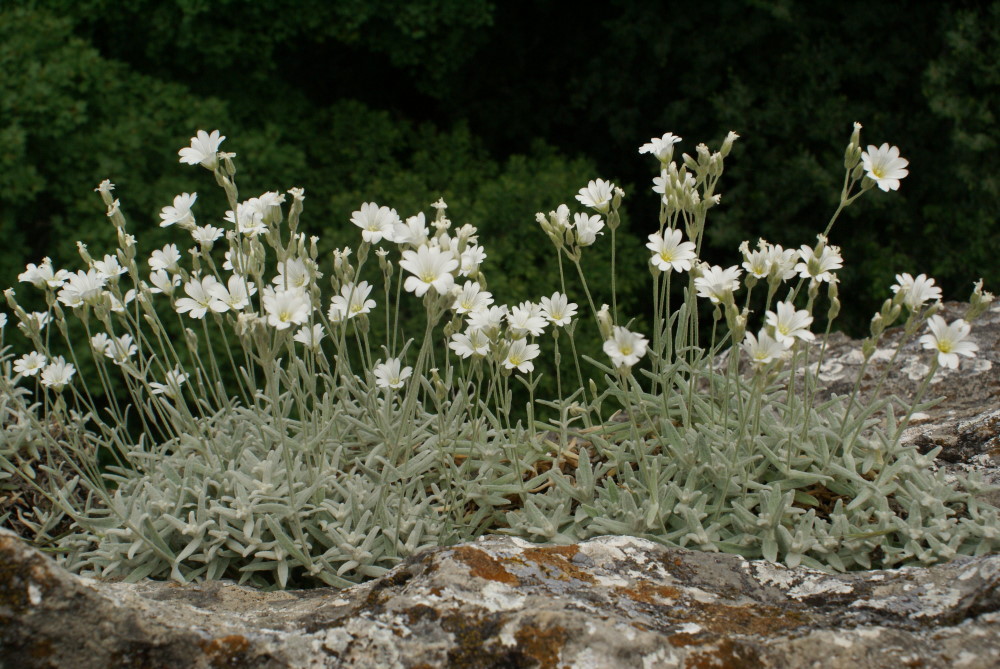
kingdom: Plantae
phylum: Tracheophyta
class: Magnoliopsida
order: Caryophyllales
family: Caryophyllaceae
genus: Cerastium
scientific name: Cerastium biebersteinii
